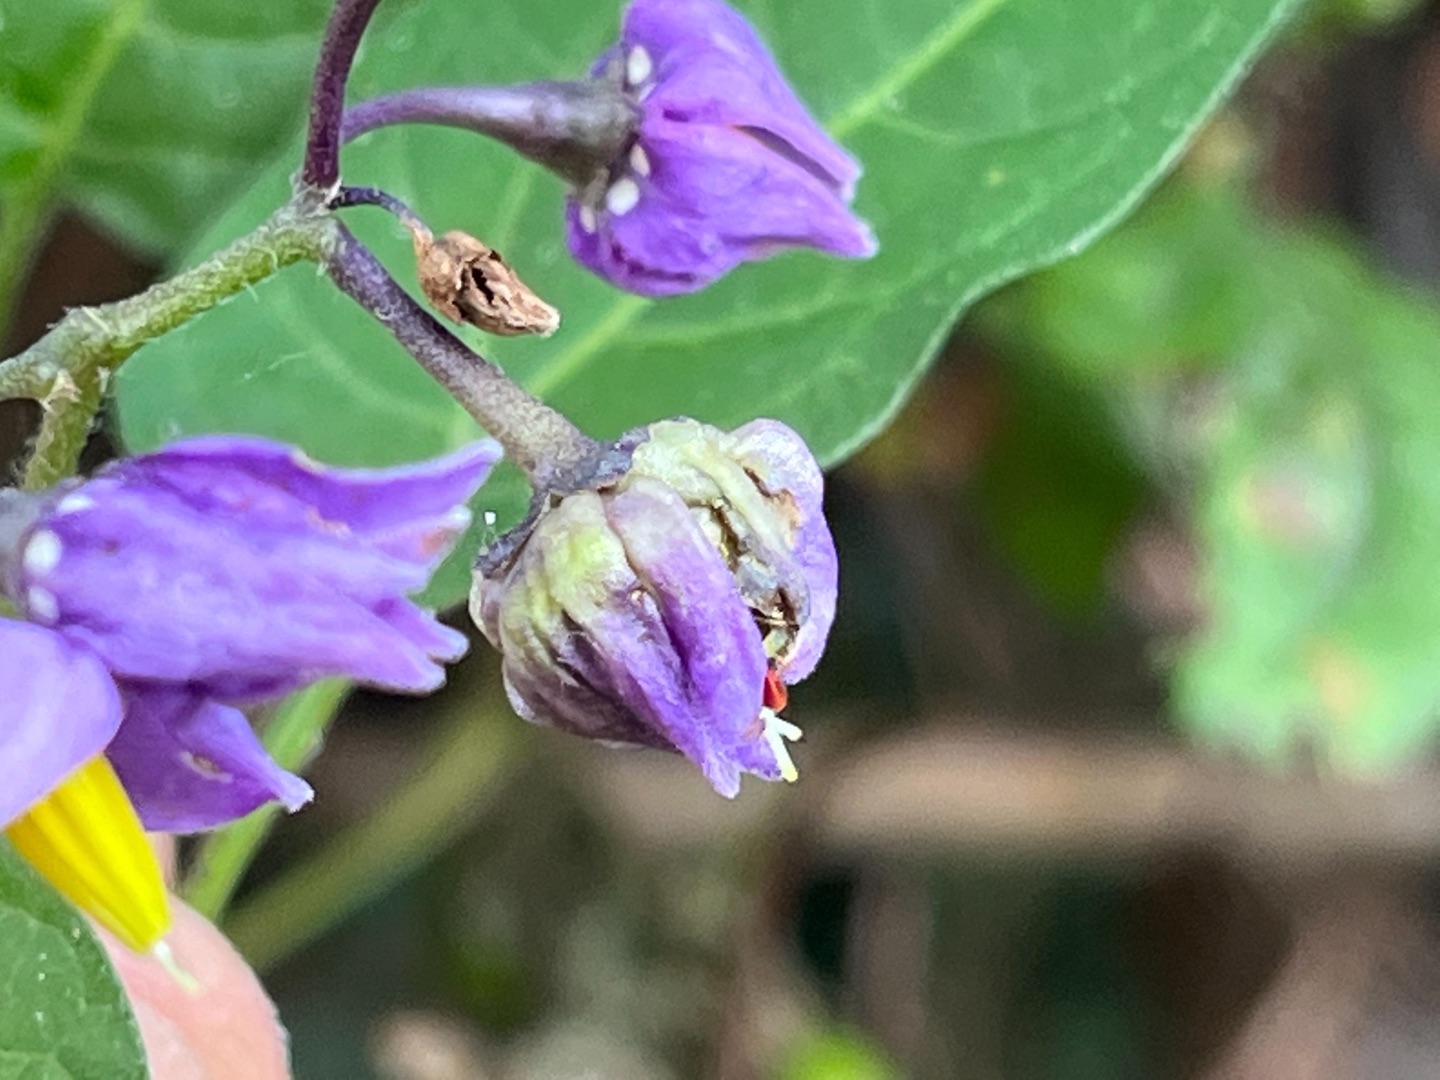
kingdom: Animalia
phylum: Arthropoda
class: Insecta
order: Diptera
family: Cecidomyiidae
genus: Contarinia
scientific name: Contarinia solani
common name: Natskyggegalmyg
